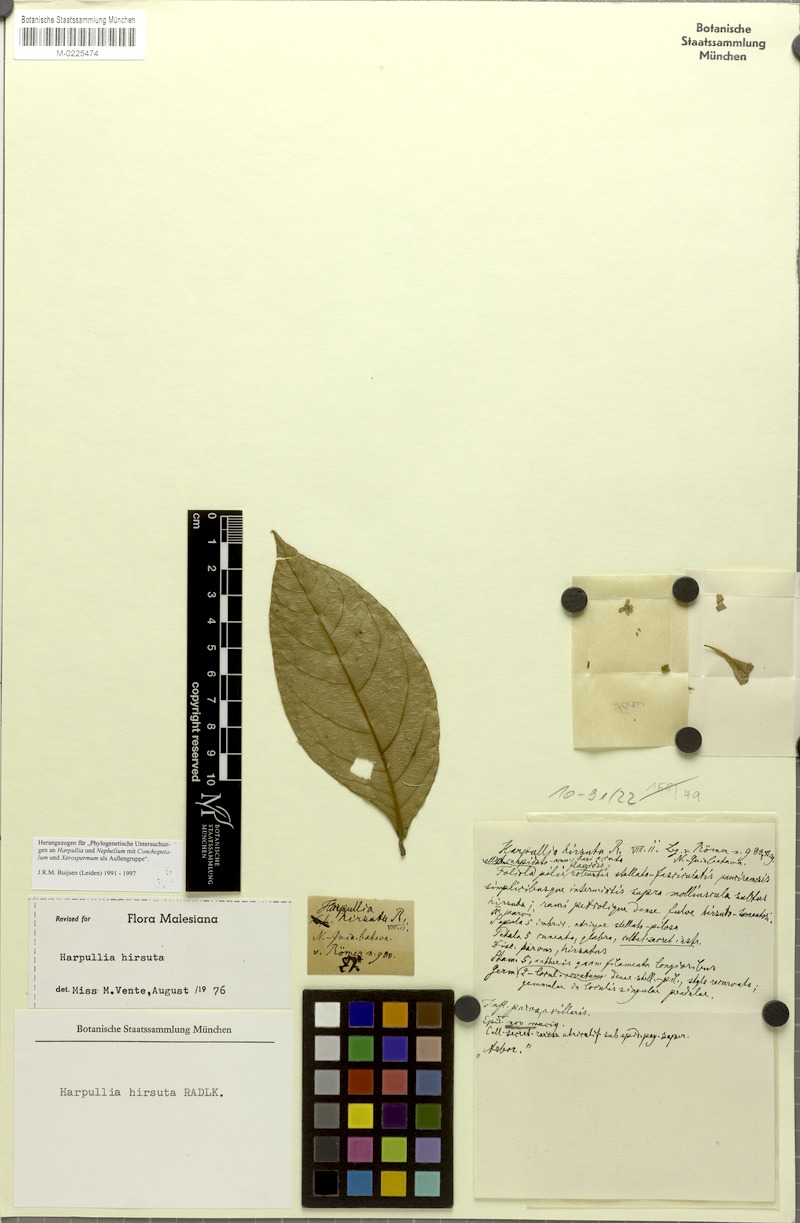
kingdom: Plantae
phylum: Tracheophyta
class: Magnoliopsida
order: Sapindales
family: Sapindaceae
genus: Harpullia
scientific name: Harpullia hirsuta
